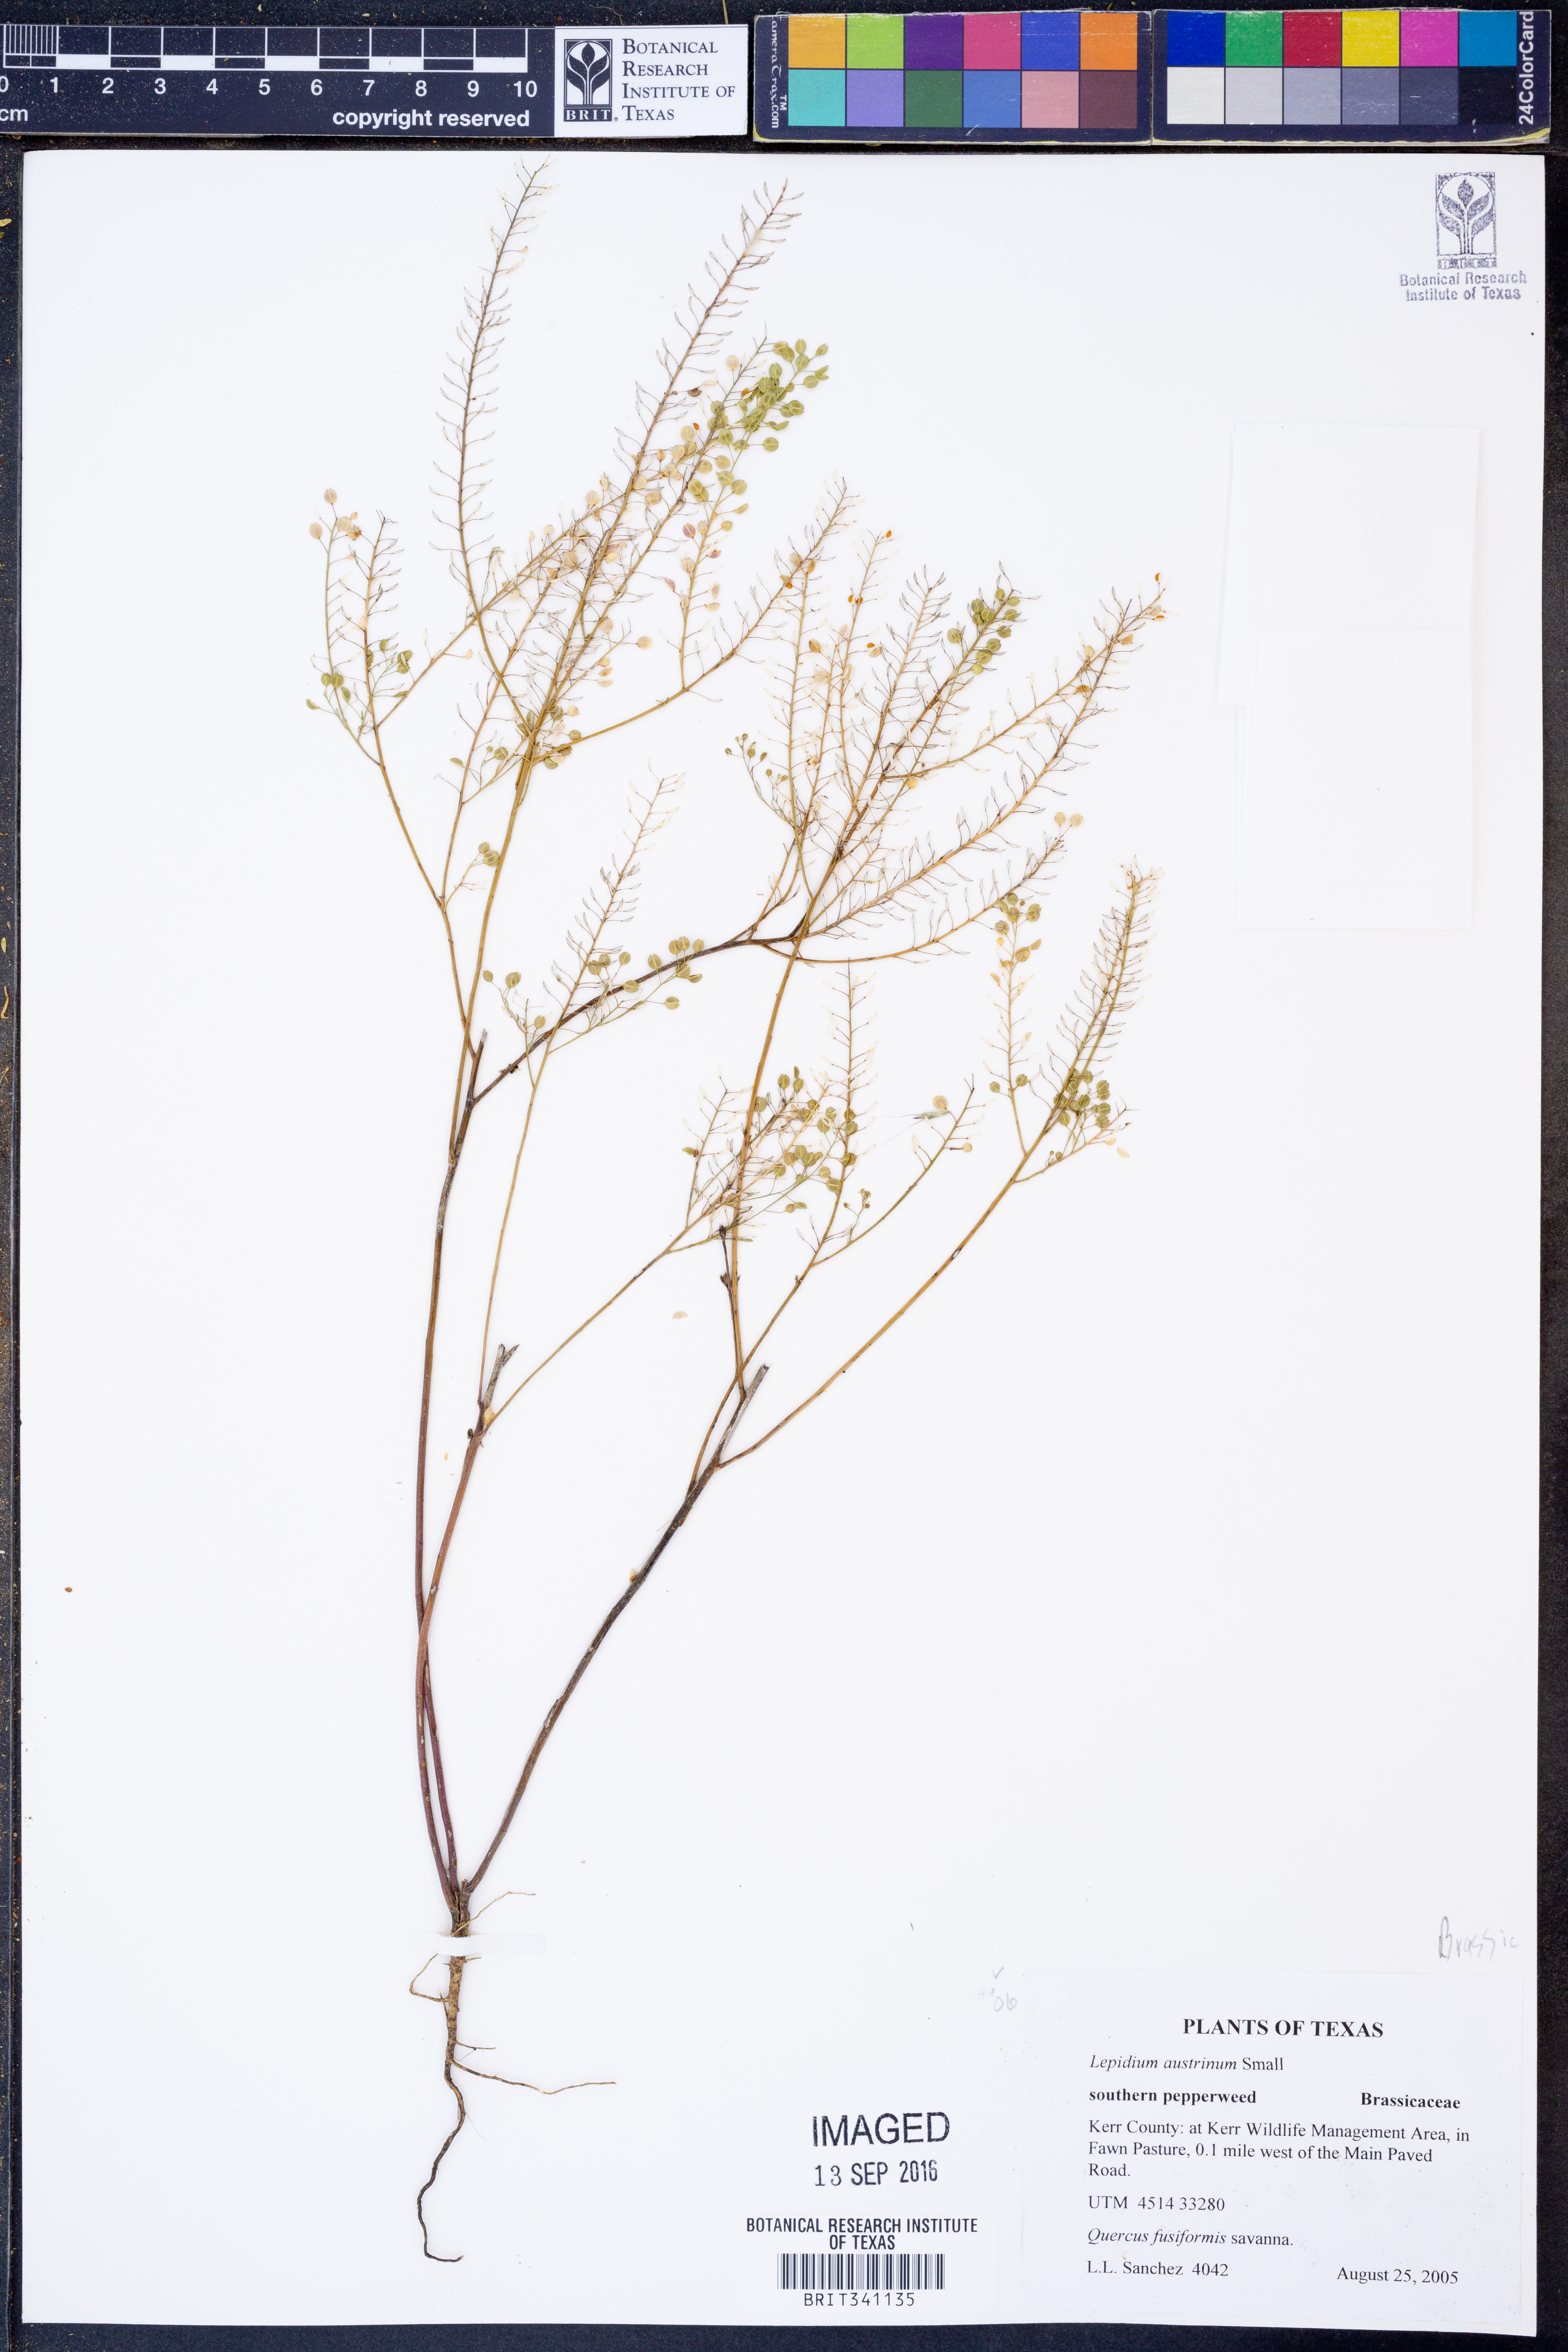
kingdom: Plantae
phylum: Tracheophyta
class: Magnoliopsida
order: Brassicales
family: Brassicaceae
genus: Lepidium
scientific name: Lepidium austrinum
